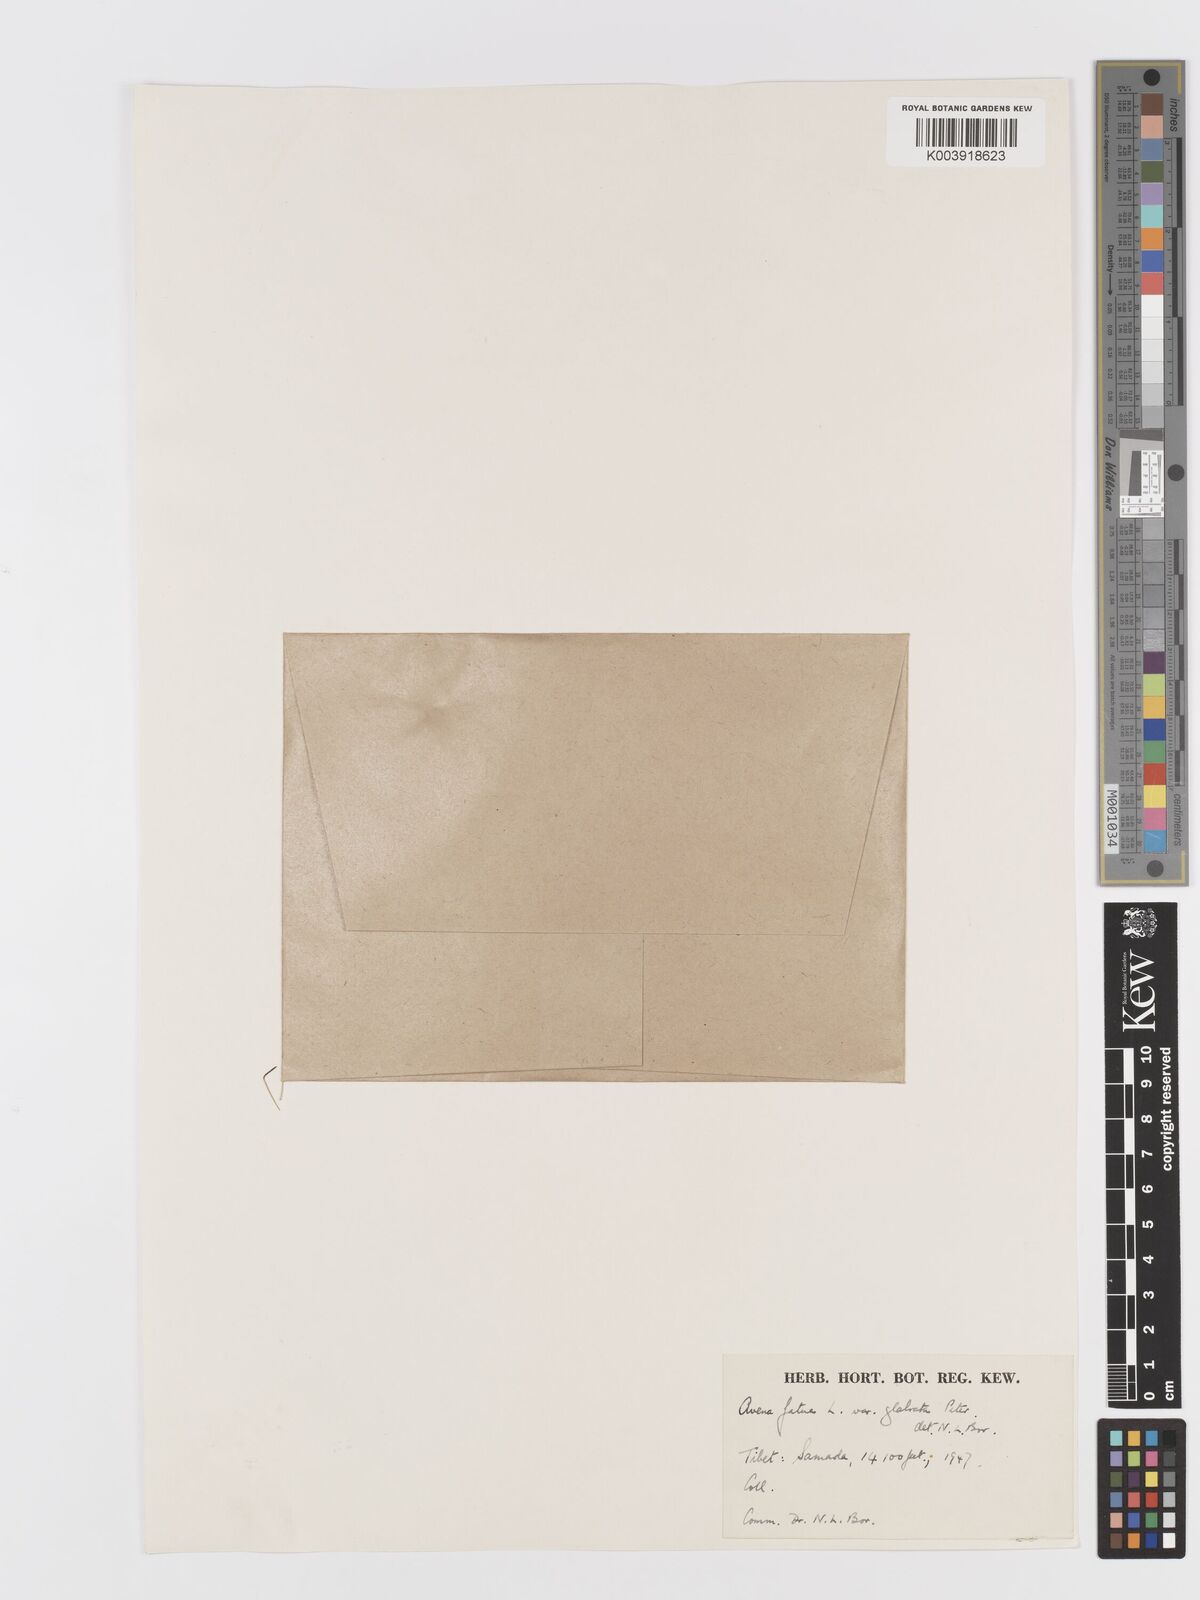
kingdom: Plantae
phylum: Tracheophyta
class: Liliopsida
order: Poales
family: Poaceae
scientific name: Poaceae
